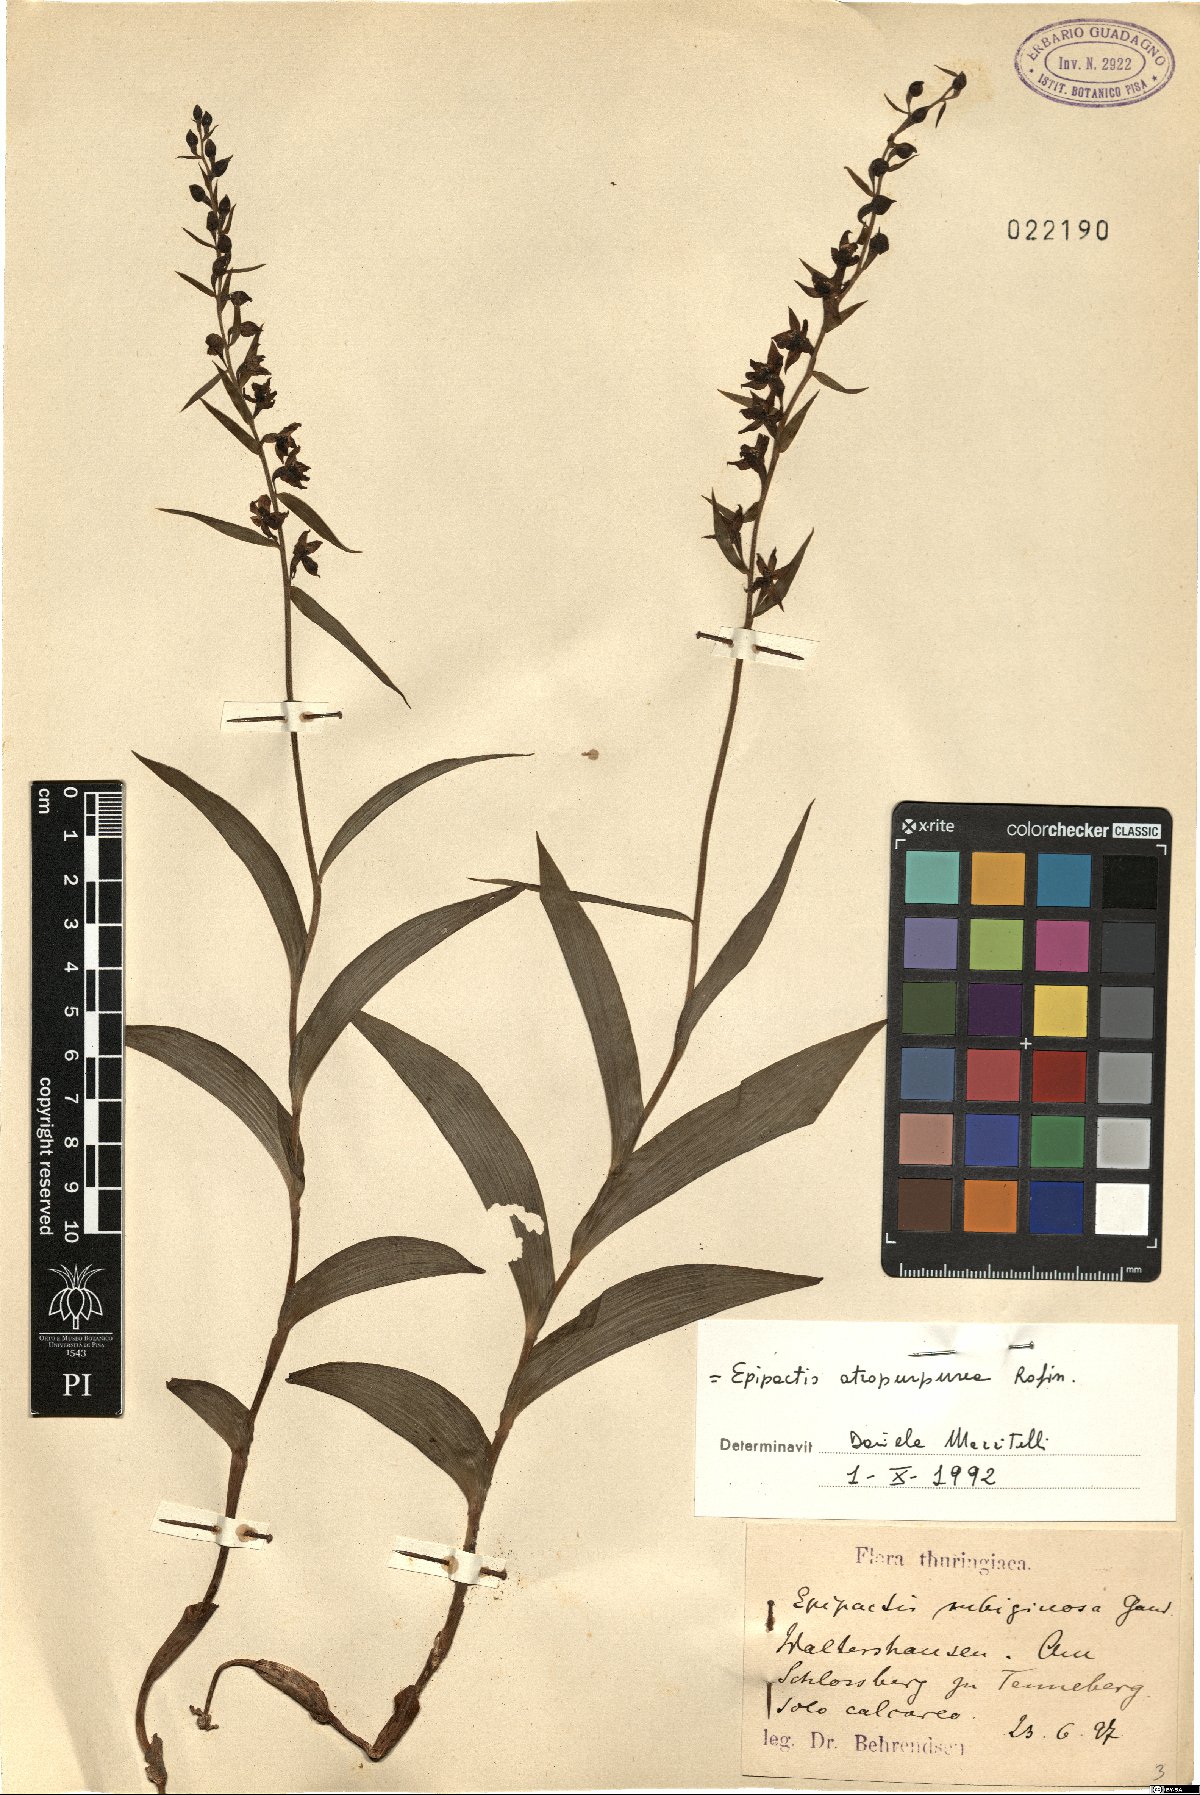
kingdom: Plantae
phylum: Tracheophyta
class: Liliopsida
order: Asparagales
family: Orchidaceae
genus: Epipactis
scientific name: Epipactis atrorubens
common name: Dark-red helleborine
